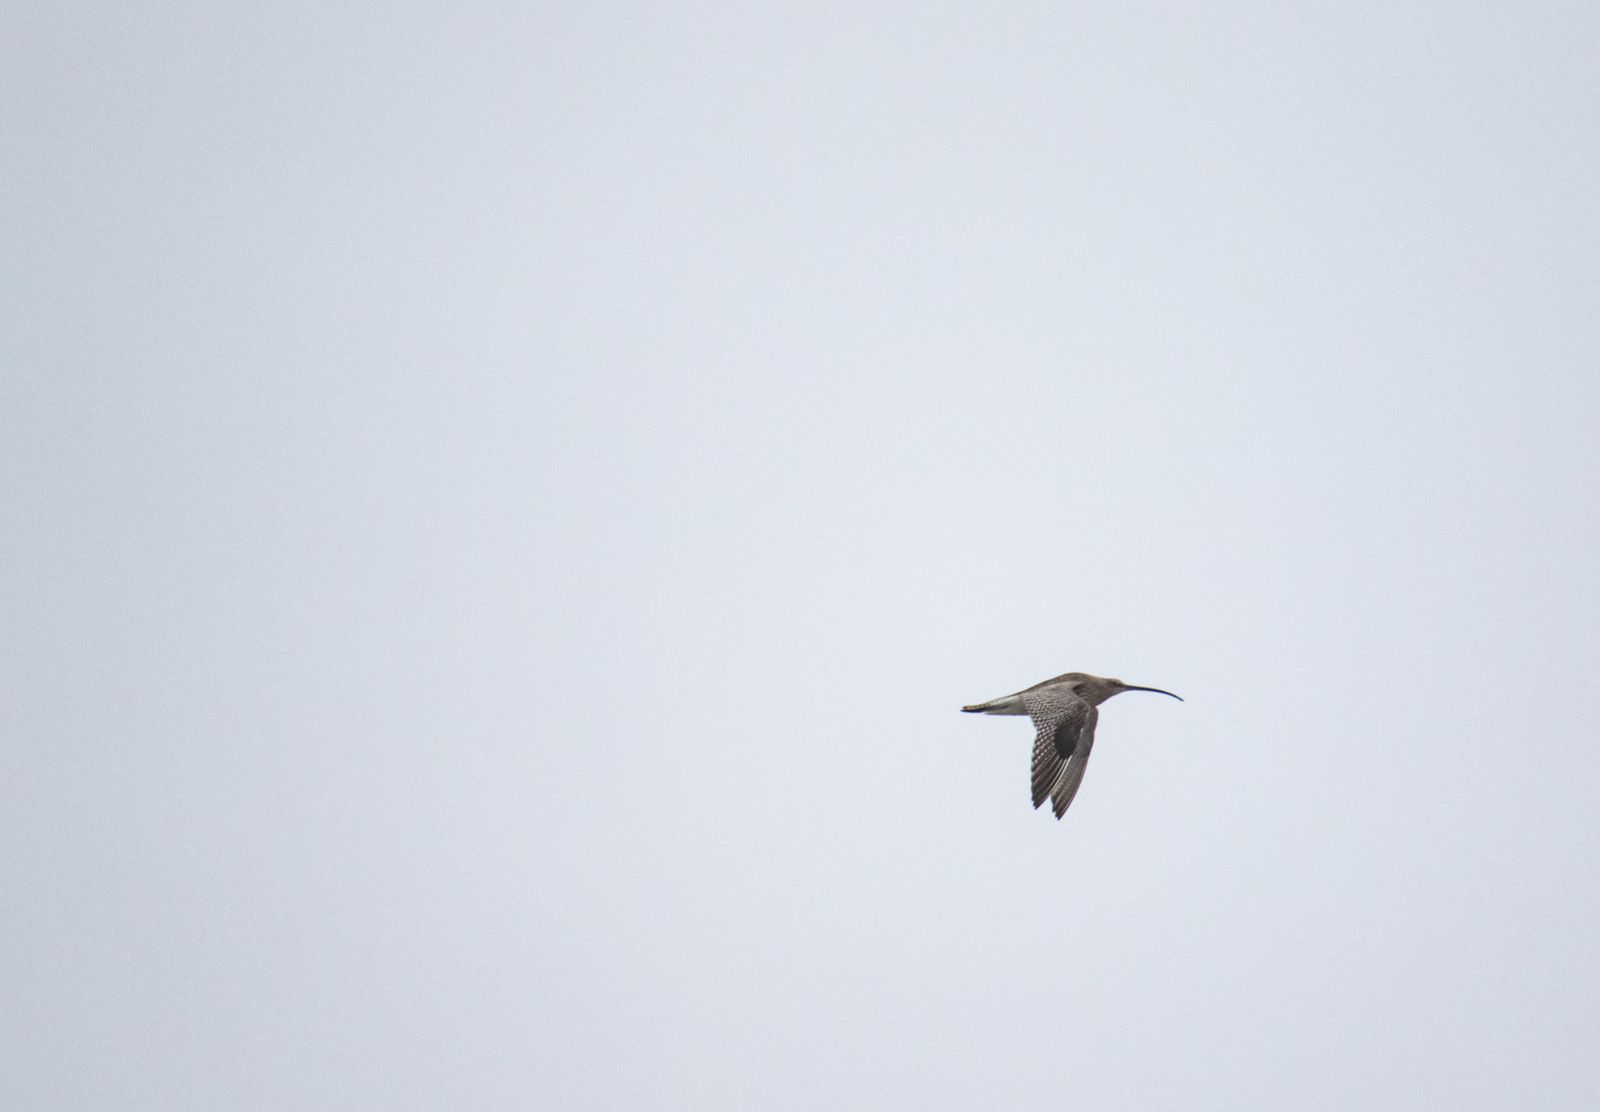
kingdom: Animalia
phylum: Chordata
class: Aves
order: Charadriiformes
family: Scolopacidae
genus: Numenius
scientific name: Numenius arquata
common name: Eurasian curlew
